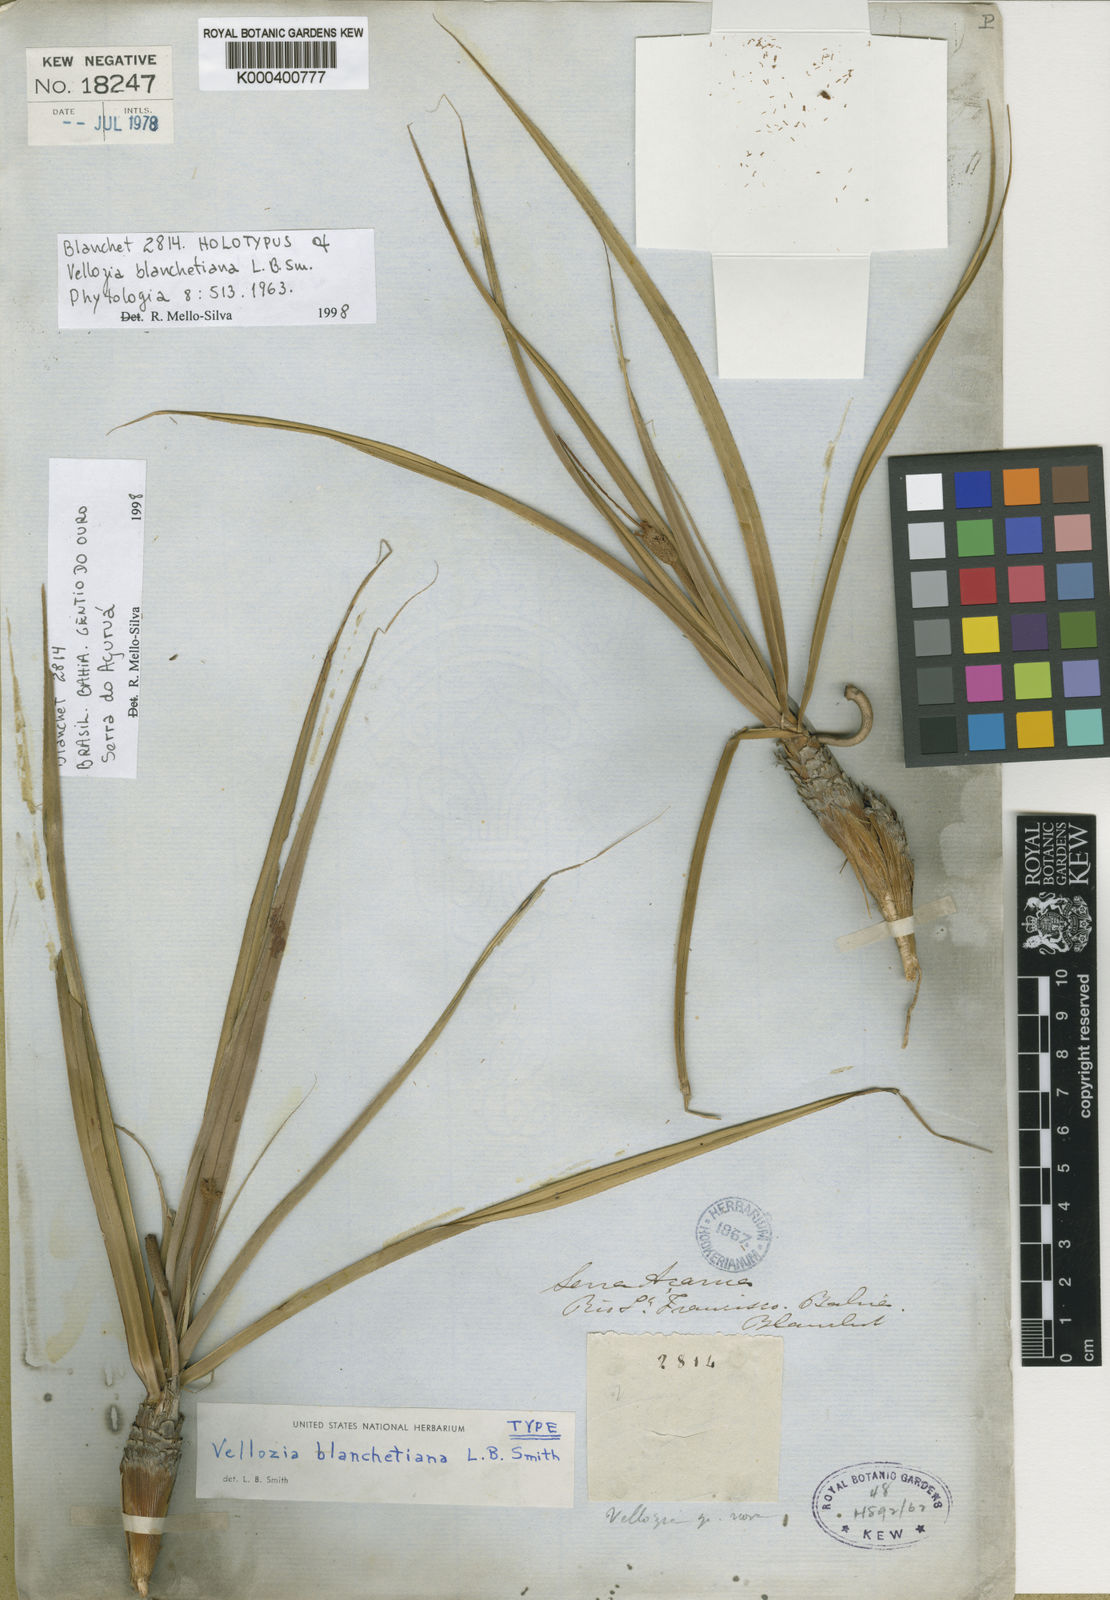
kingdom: Plantae
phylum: Tracheophyta
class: Liliopsida
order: Pandanales
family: Velloziaceae
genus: Vellozia
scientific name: Vellozia blanchetiana
